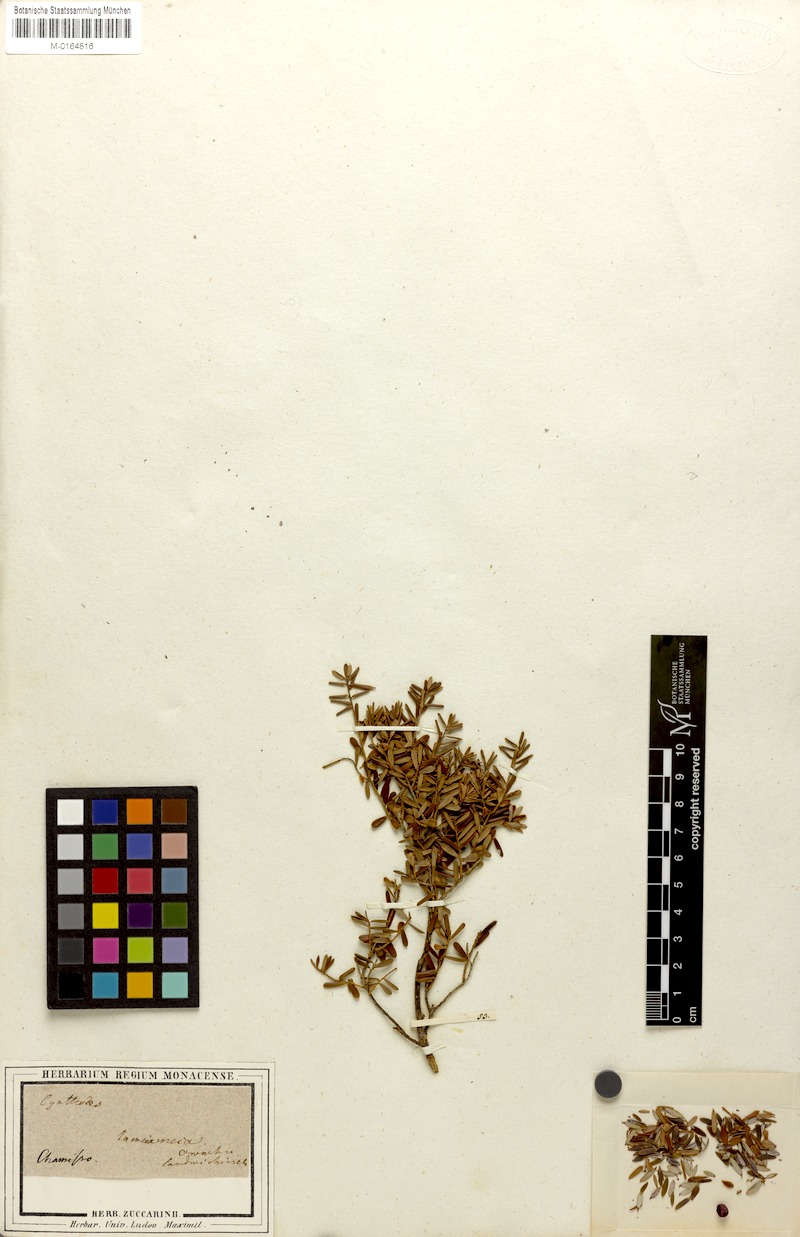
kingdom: Plantae
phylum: Tracheophyta
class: Magnoliopsida
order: Ericales
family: Ericaceae
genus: Leptecophylla
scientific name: Leptecophylla tameiameiae
